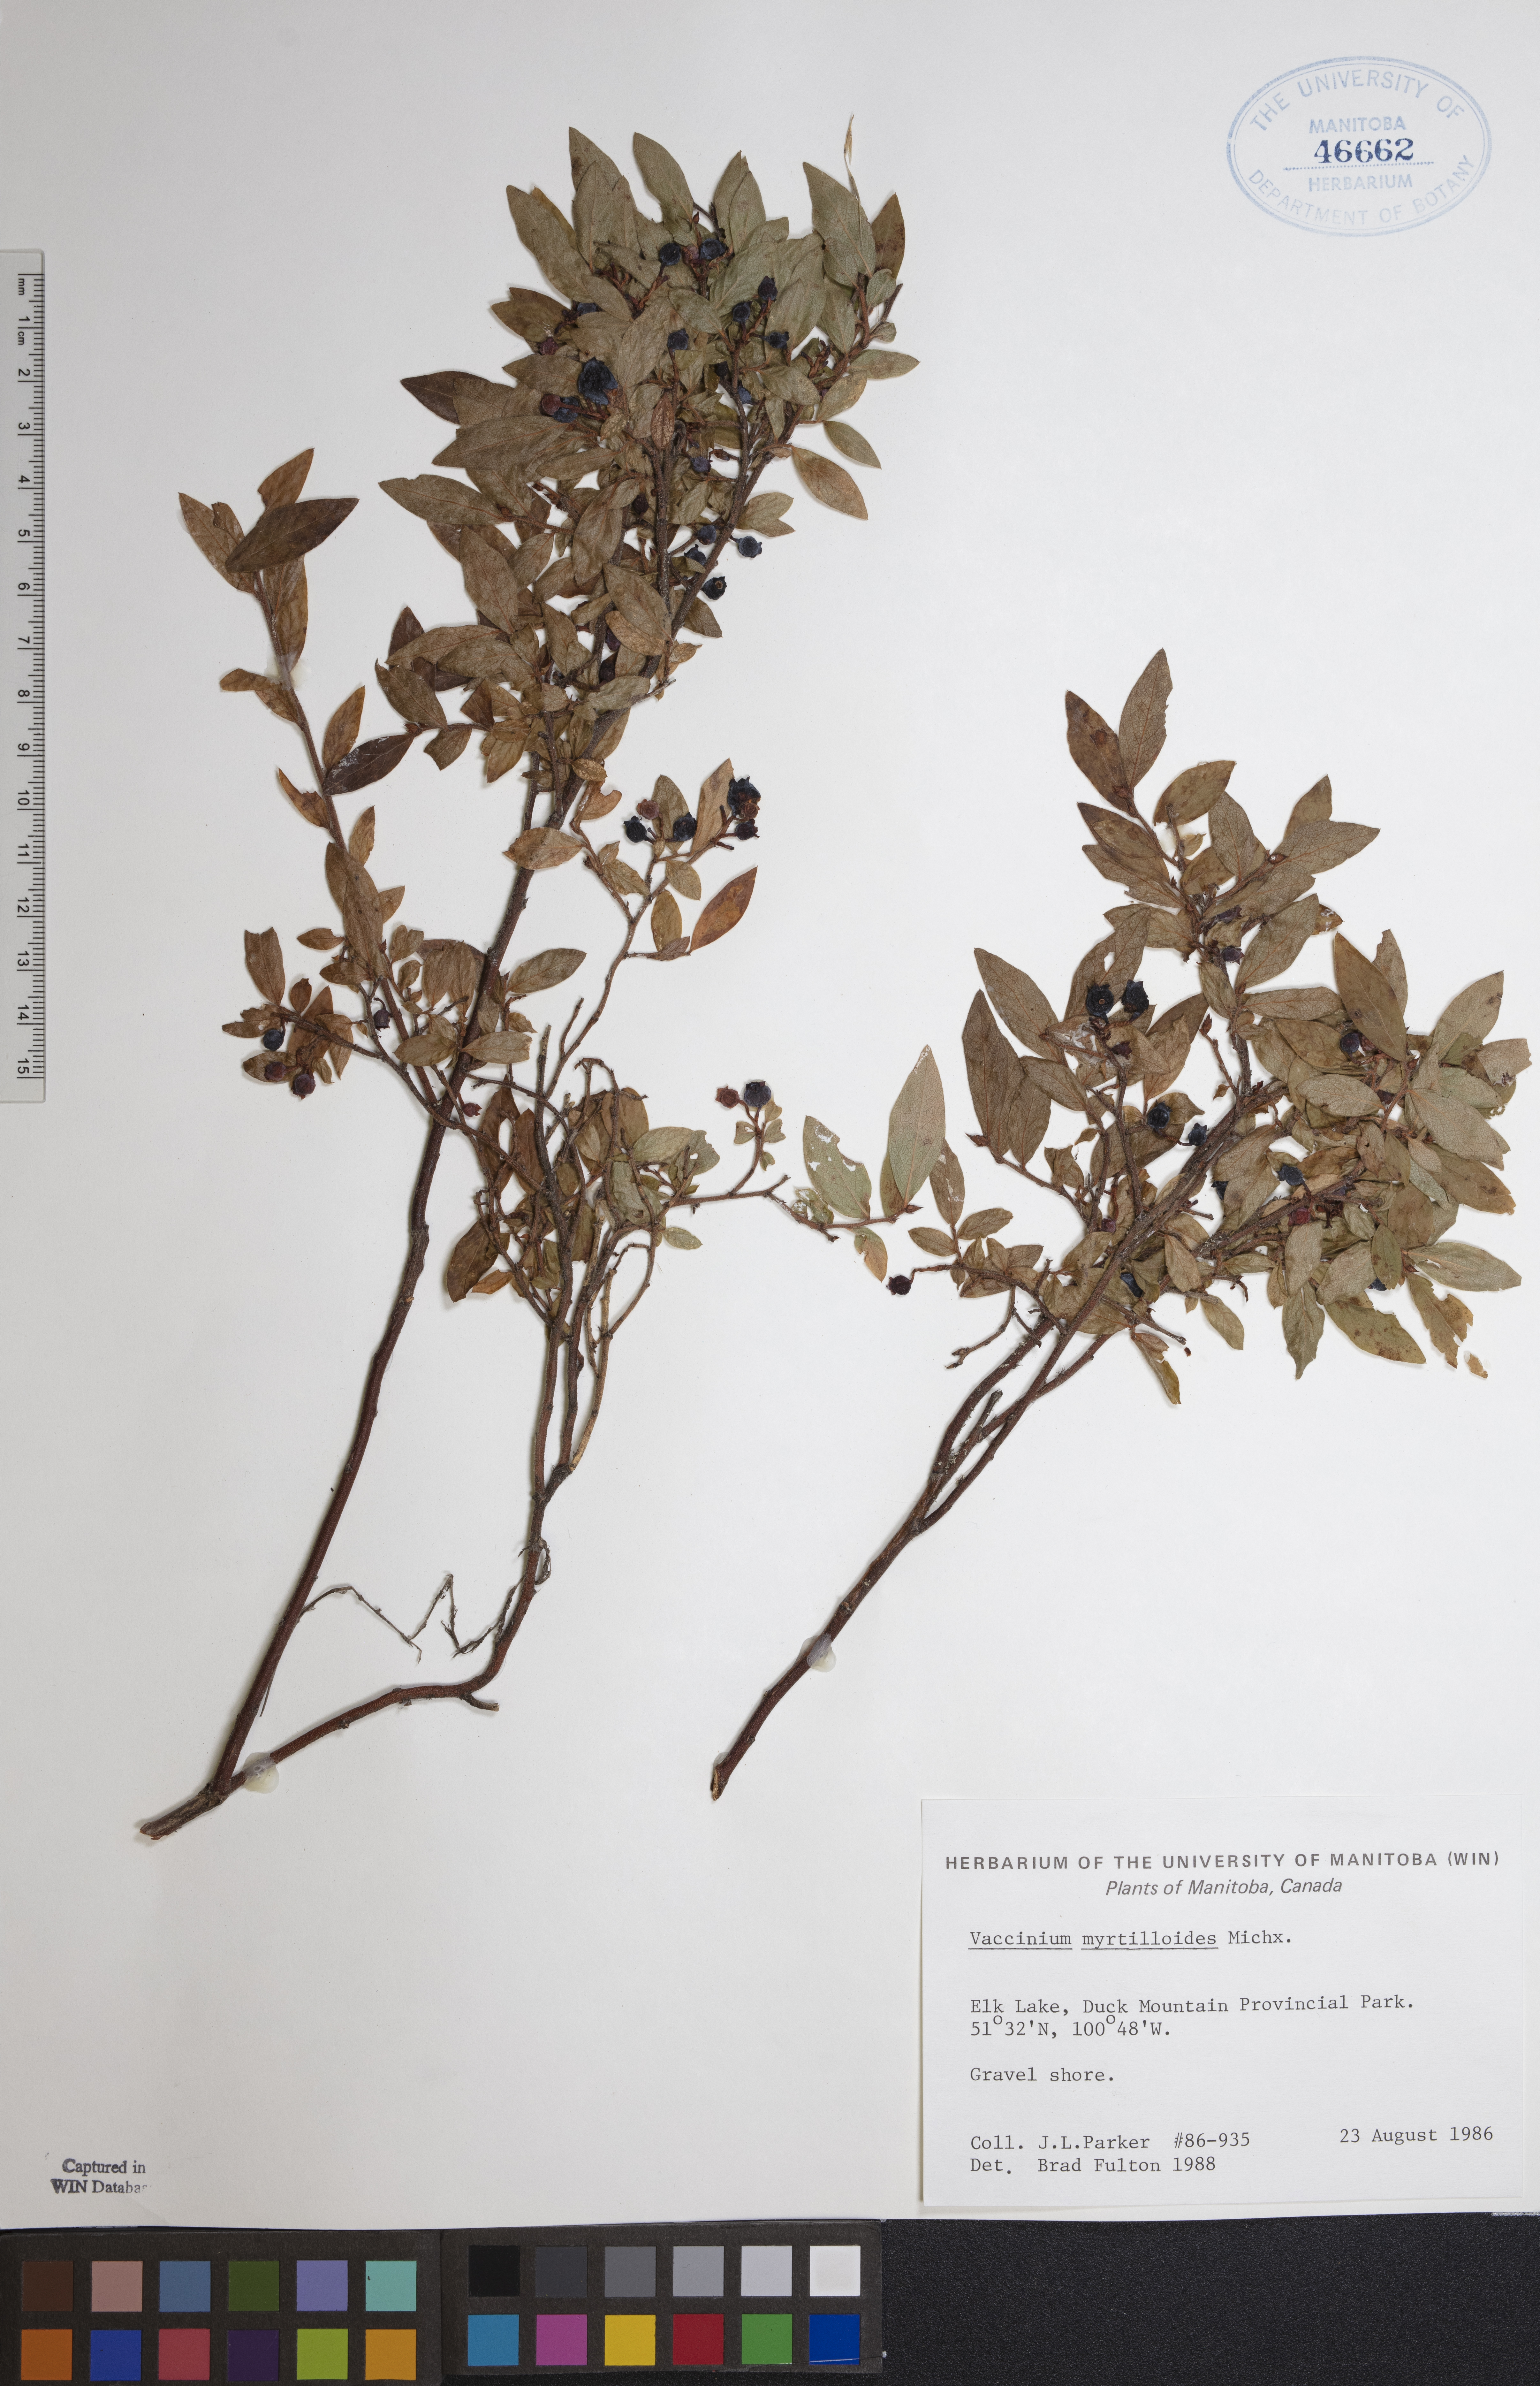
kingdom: Plantae
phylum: Tracheophyta
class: Magnoliopsida
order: Ericales
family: Ericaceae
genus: Vaccinium
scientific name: Vaccinium myrtilloides
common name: Canada blueberry
